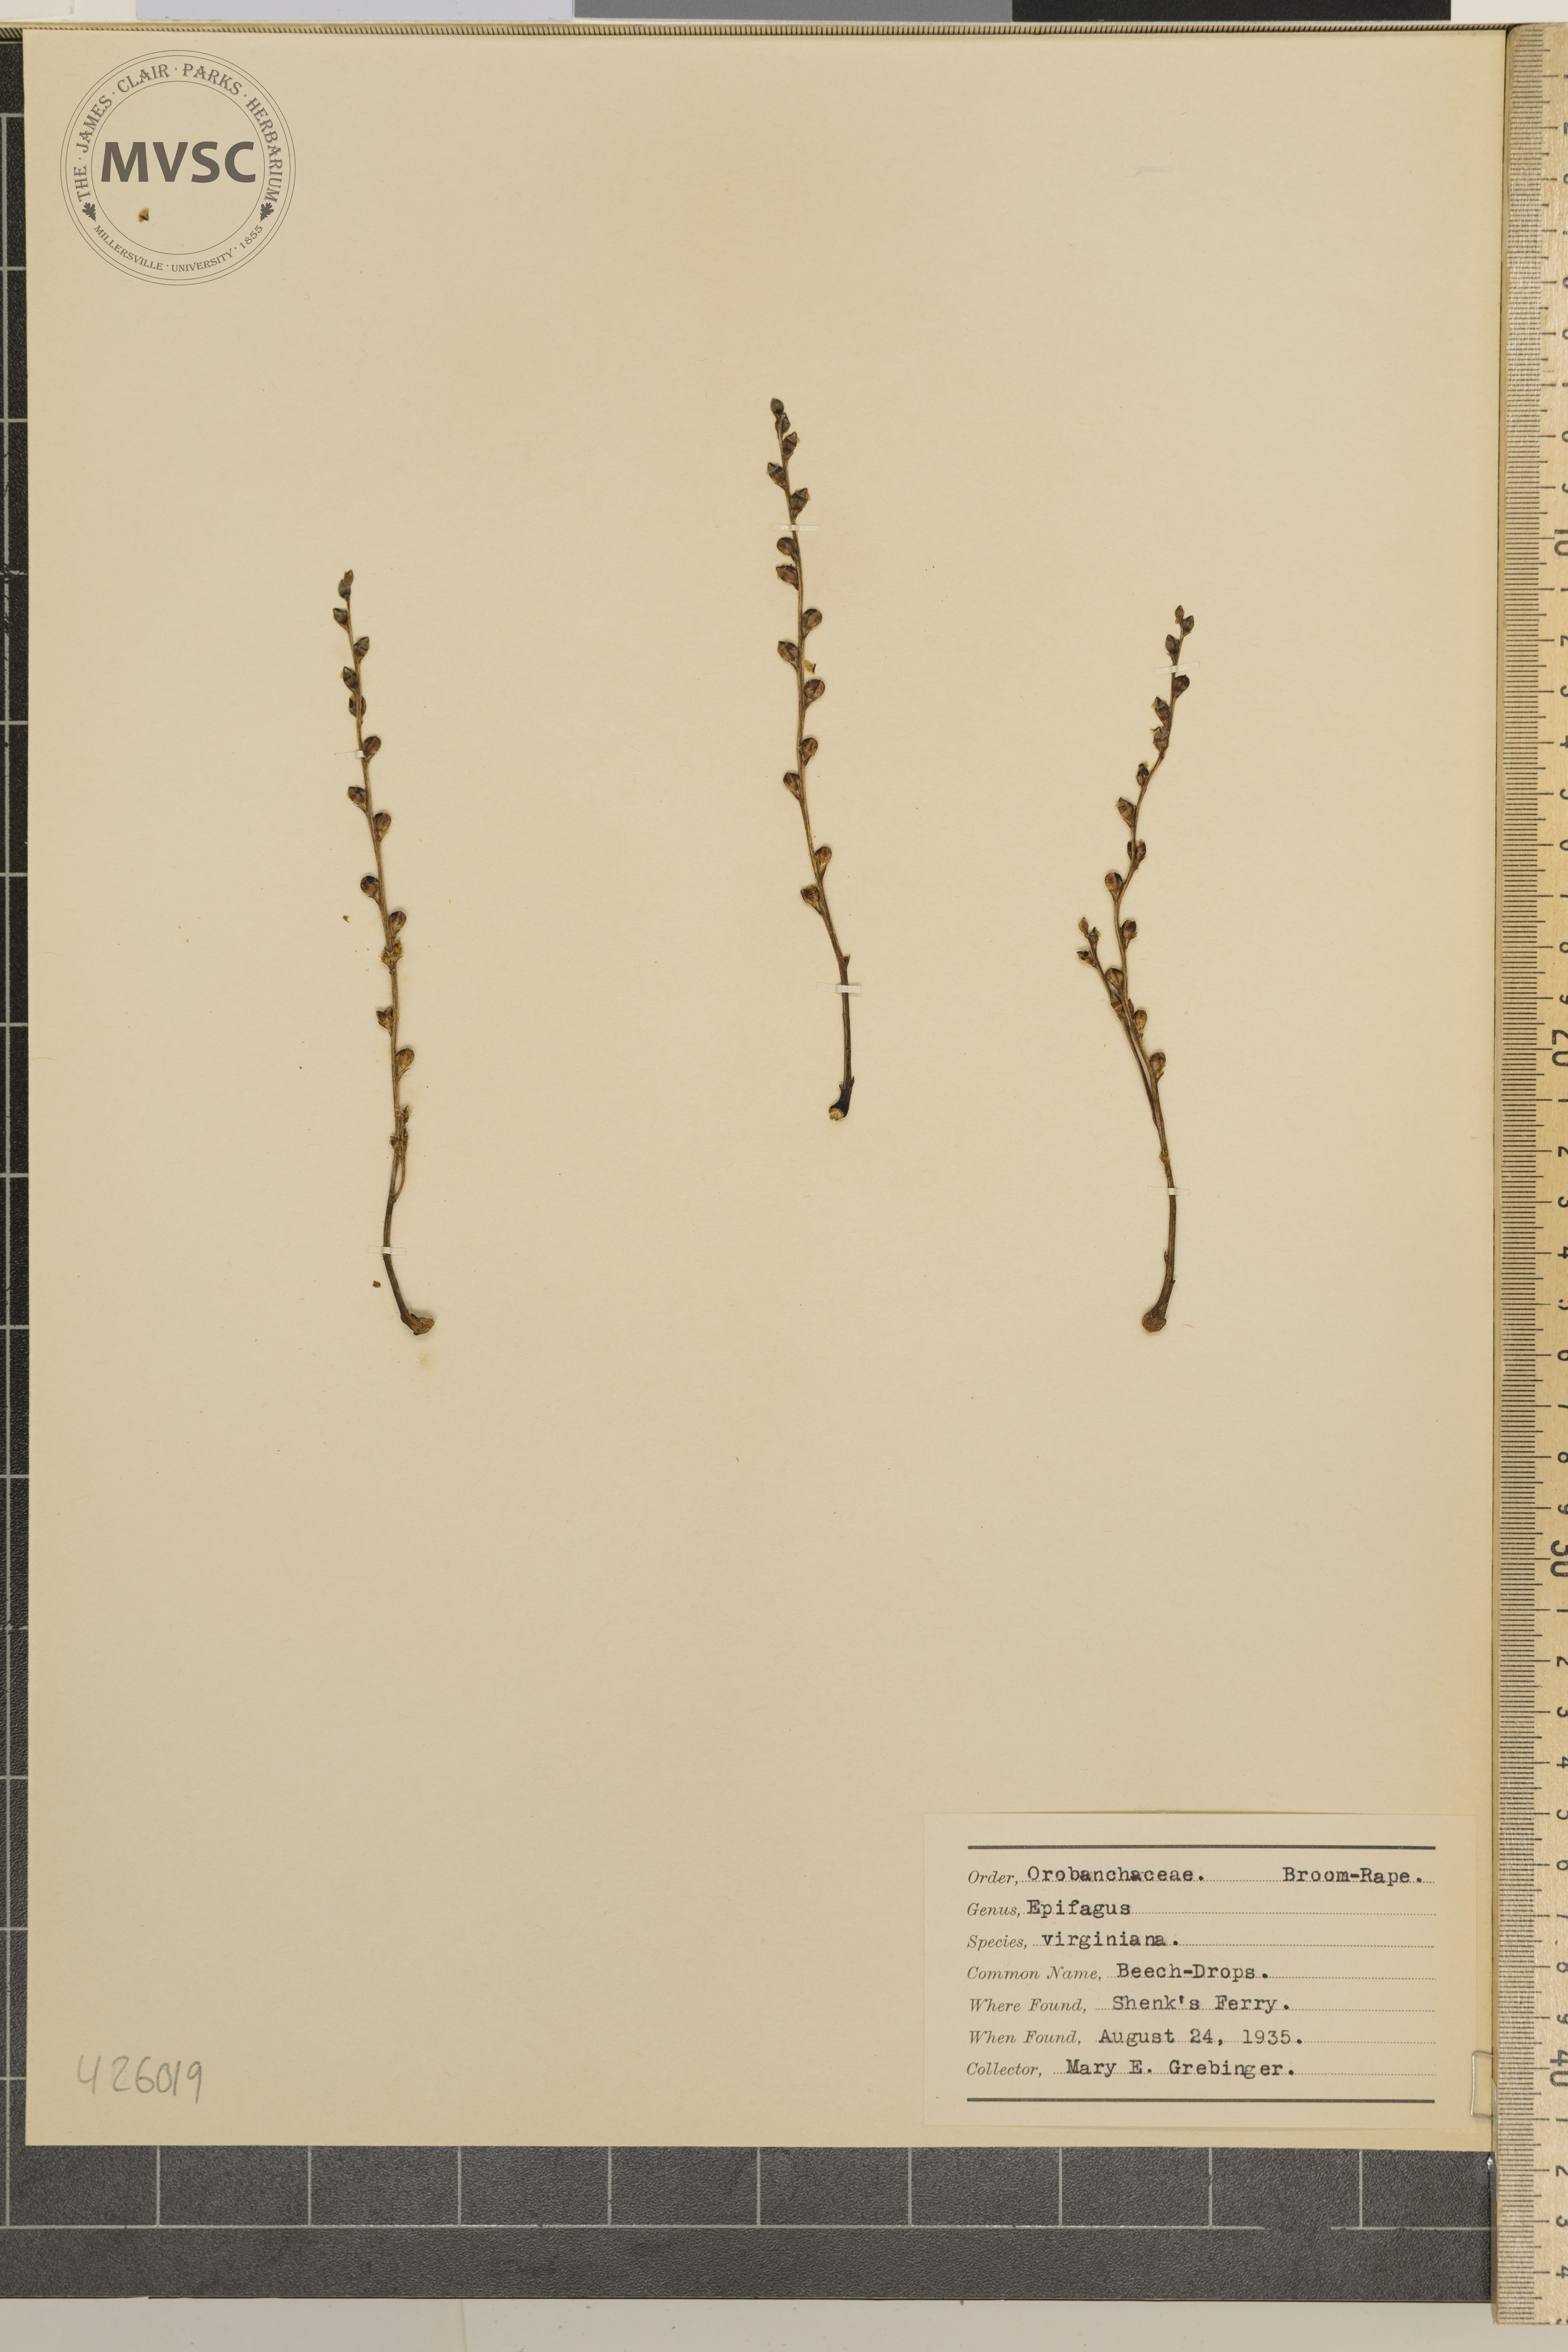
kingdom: Plantae
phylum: Tracheophyta
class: Magnoliopsida
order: Lamiales
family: Orobanchaceae
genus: Epifagus
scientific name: Epifagus virginiana
